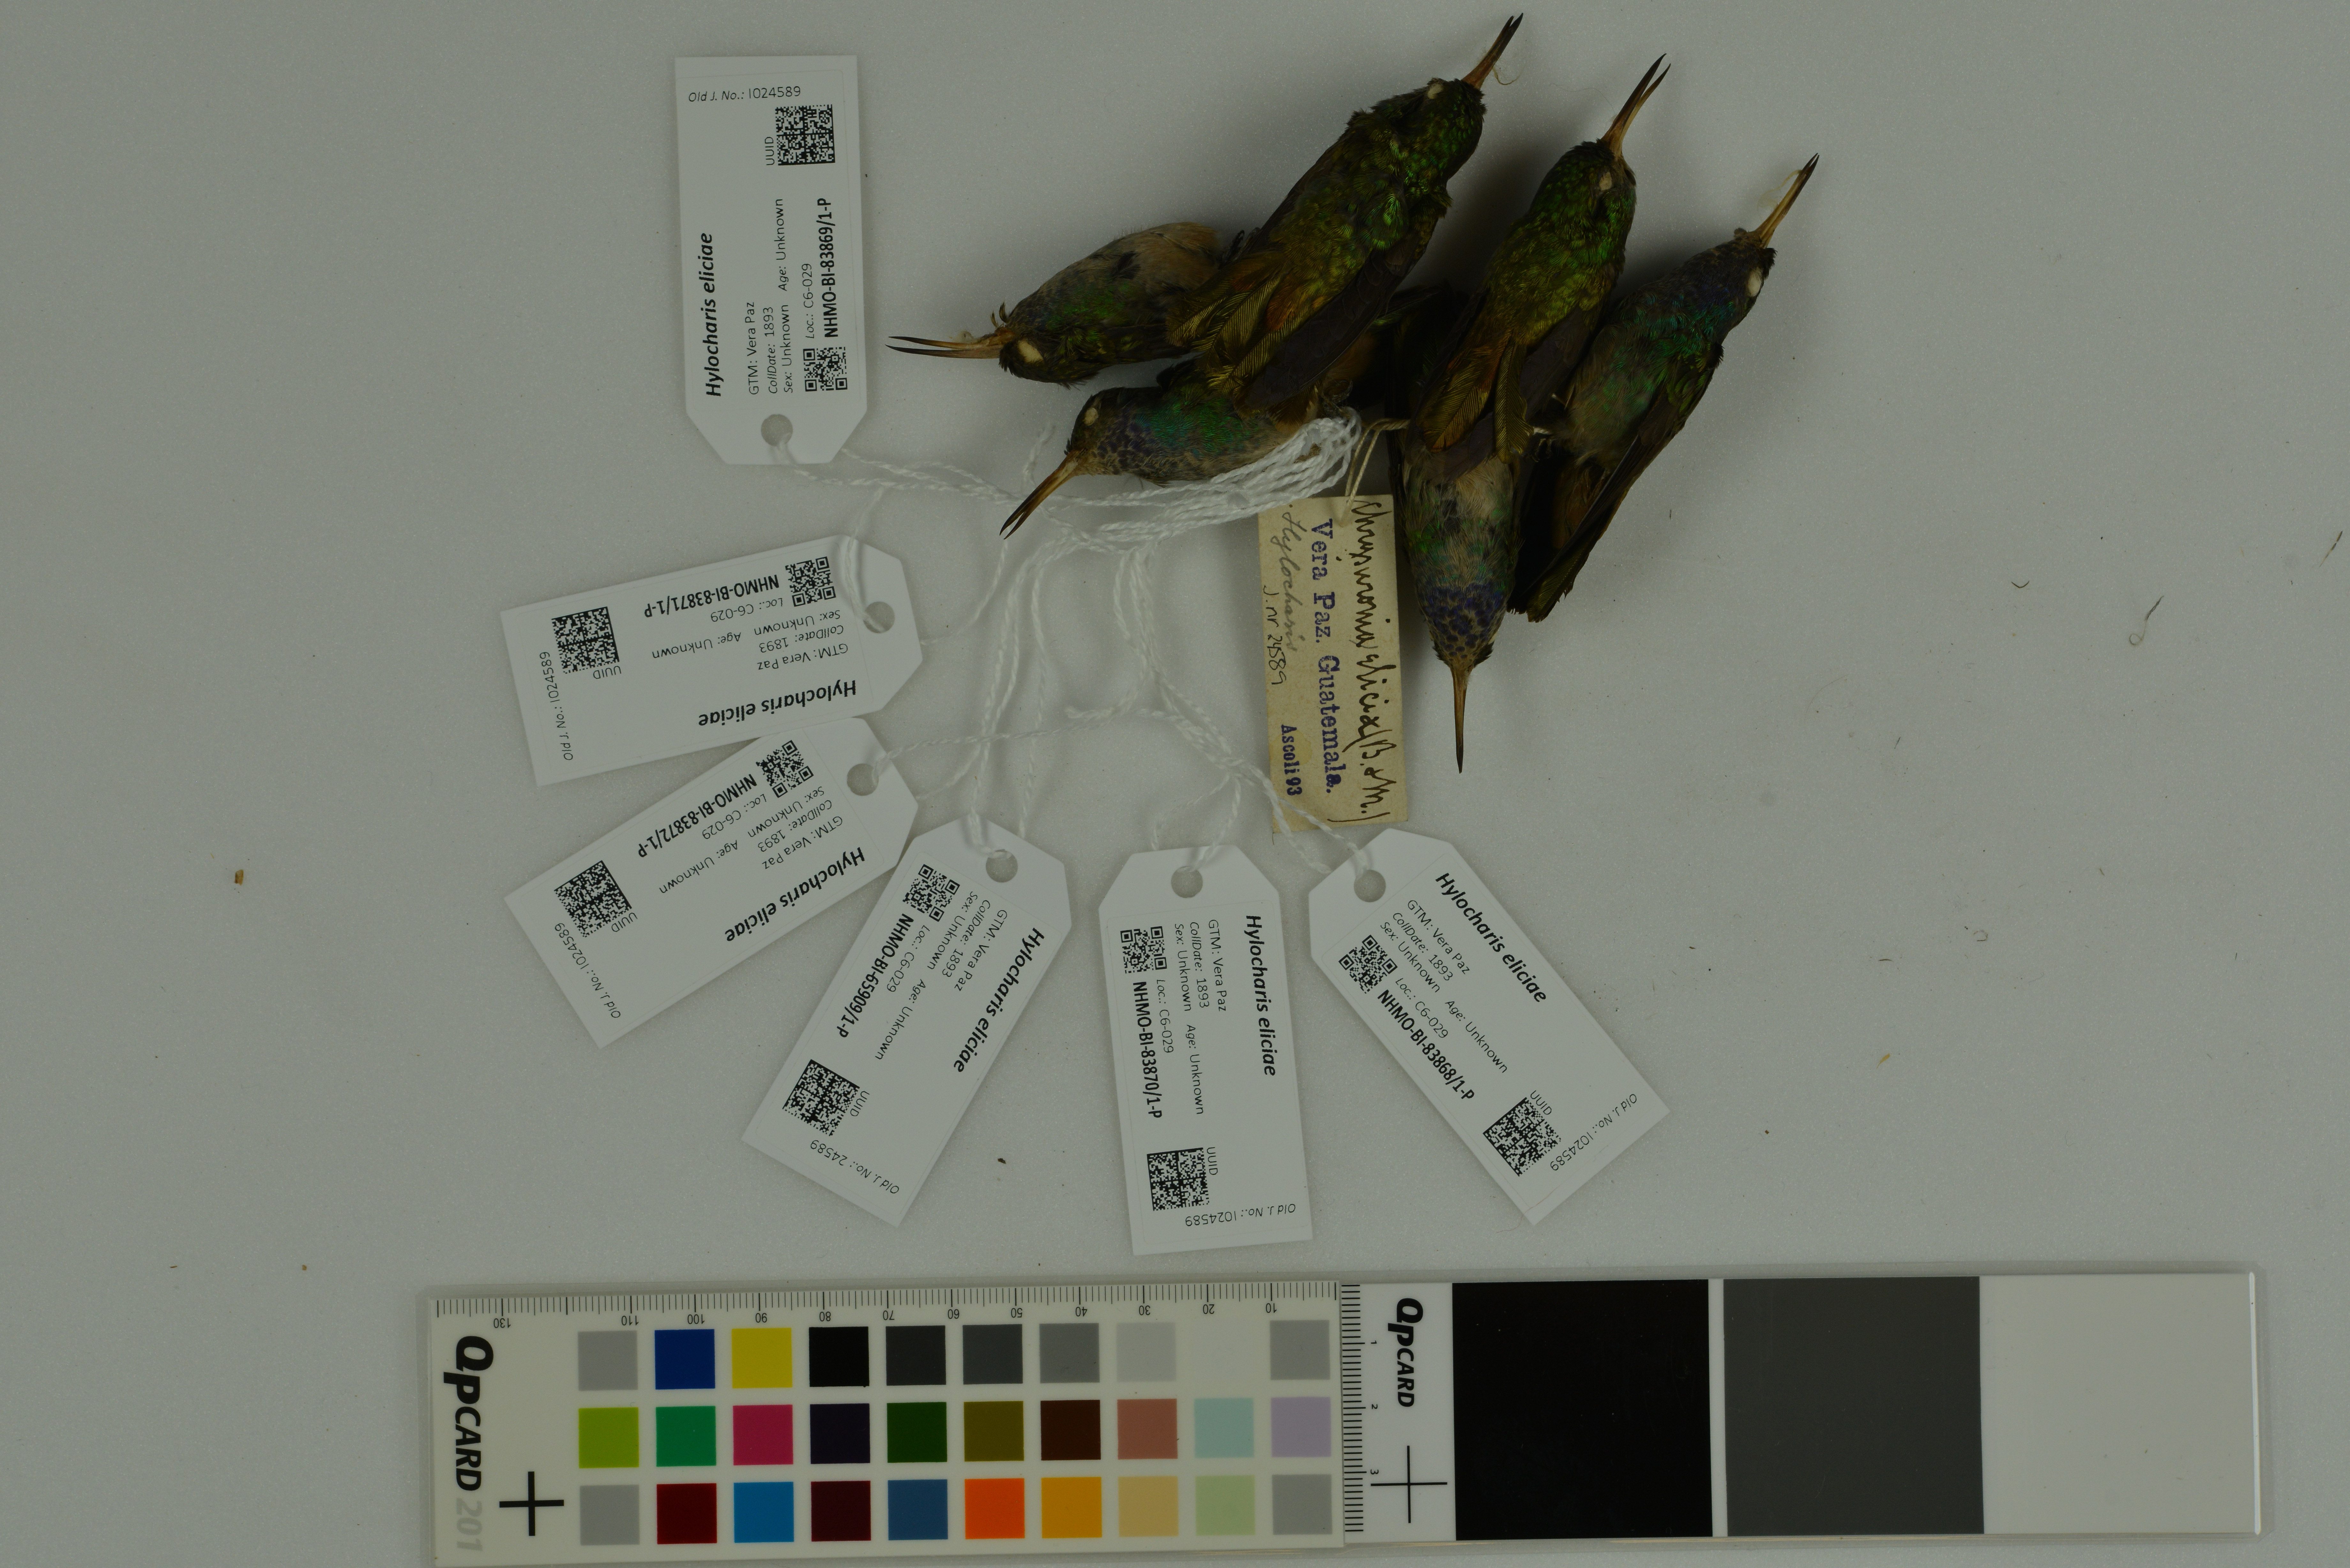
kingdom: Animalia
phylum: Chordata
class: Aves
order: Apodiformes
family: Trochilidae
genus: Chlorestes
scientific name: Chlorestes eliciae
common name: Blue-throated sapphire
